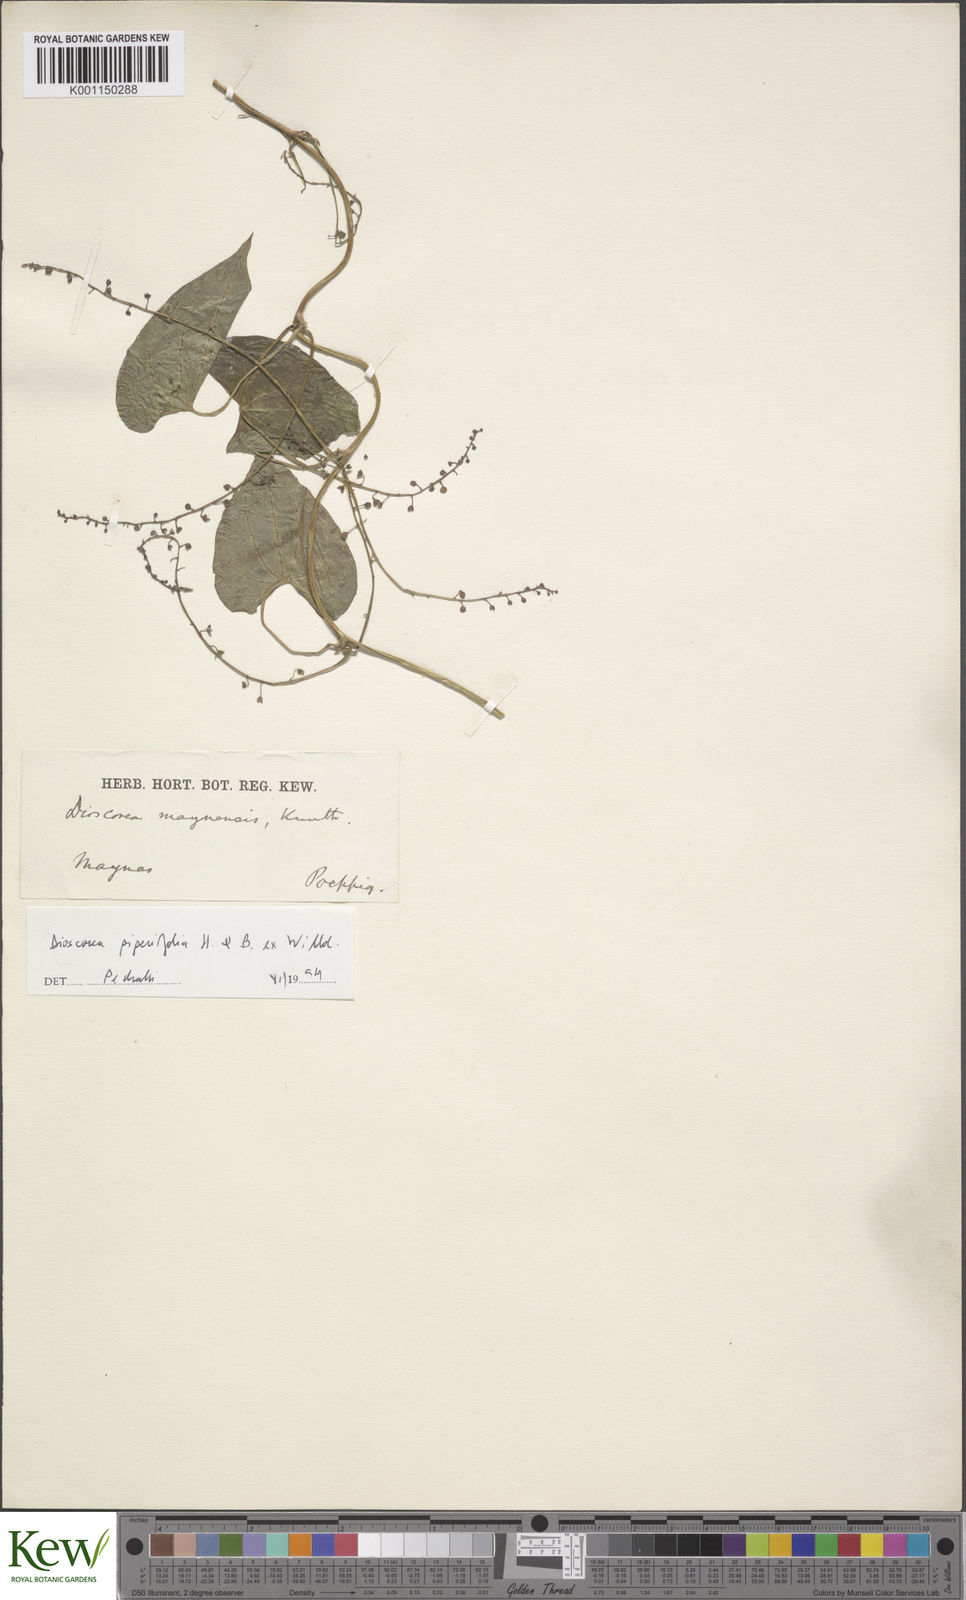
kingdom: Plantae
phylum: Tracheophyta
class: Liliopsida
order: Dioscoreales
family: Dioscoreaceae
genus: Dioscorea
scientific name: Dioscorea piperifolia
